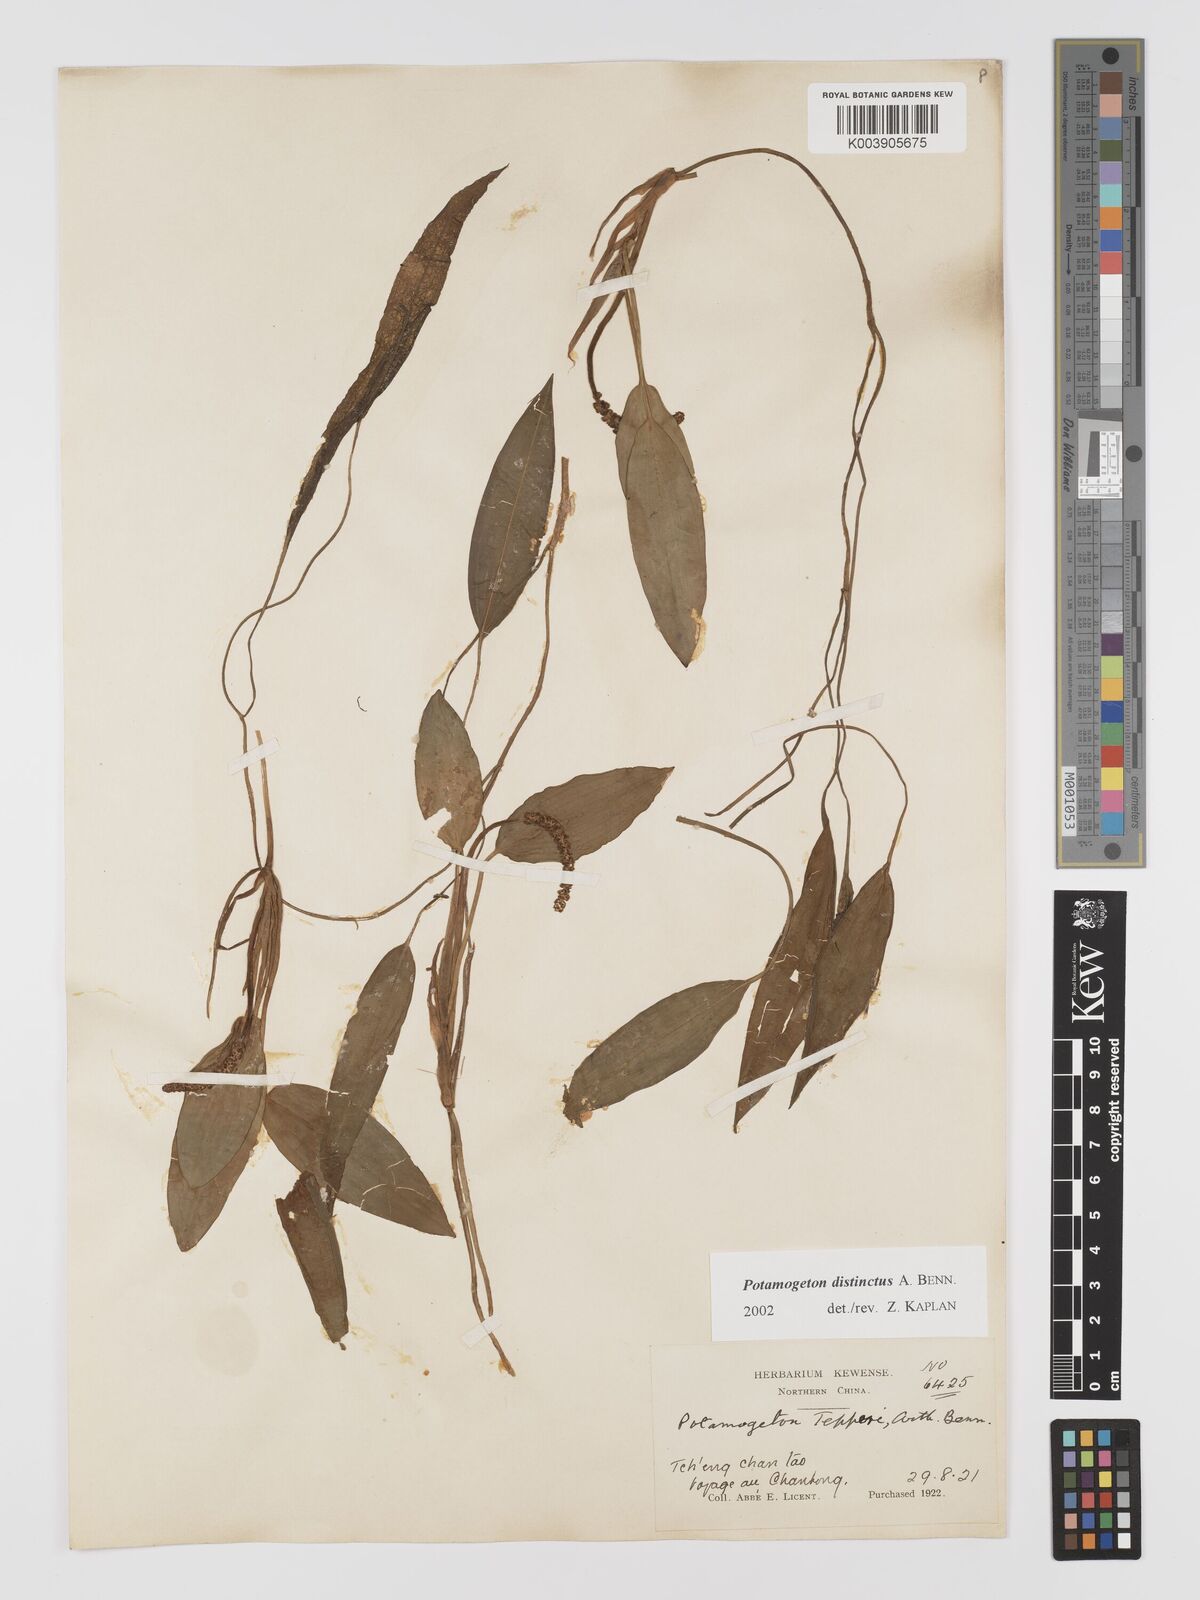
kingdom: Plantae
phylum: Tracheophyta
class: Liliopsida
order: Alismatales
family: Potamogetonaceae
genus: Potamogeton
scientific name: Potamogeton distinctus
